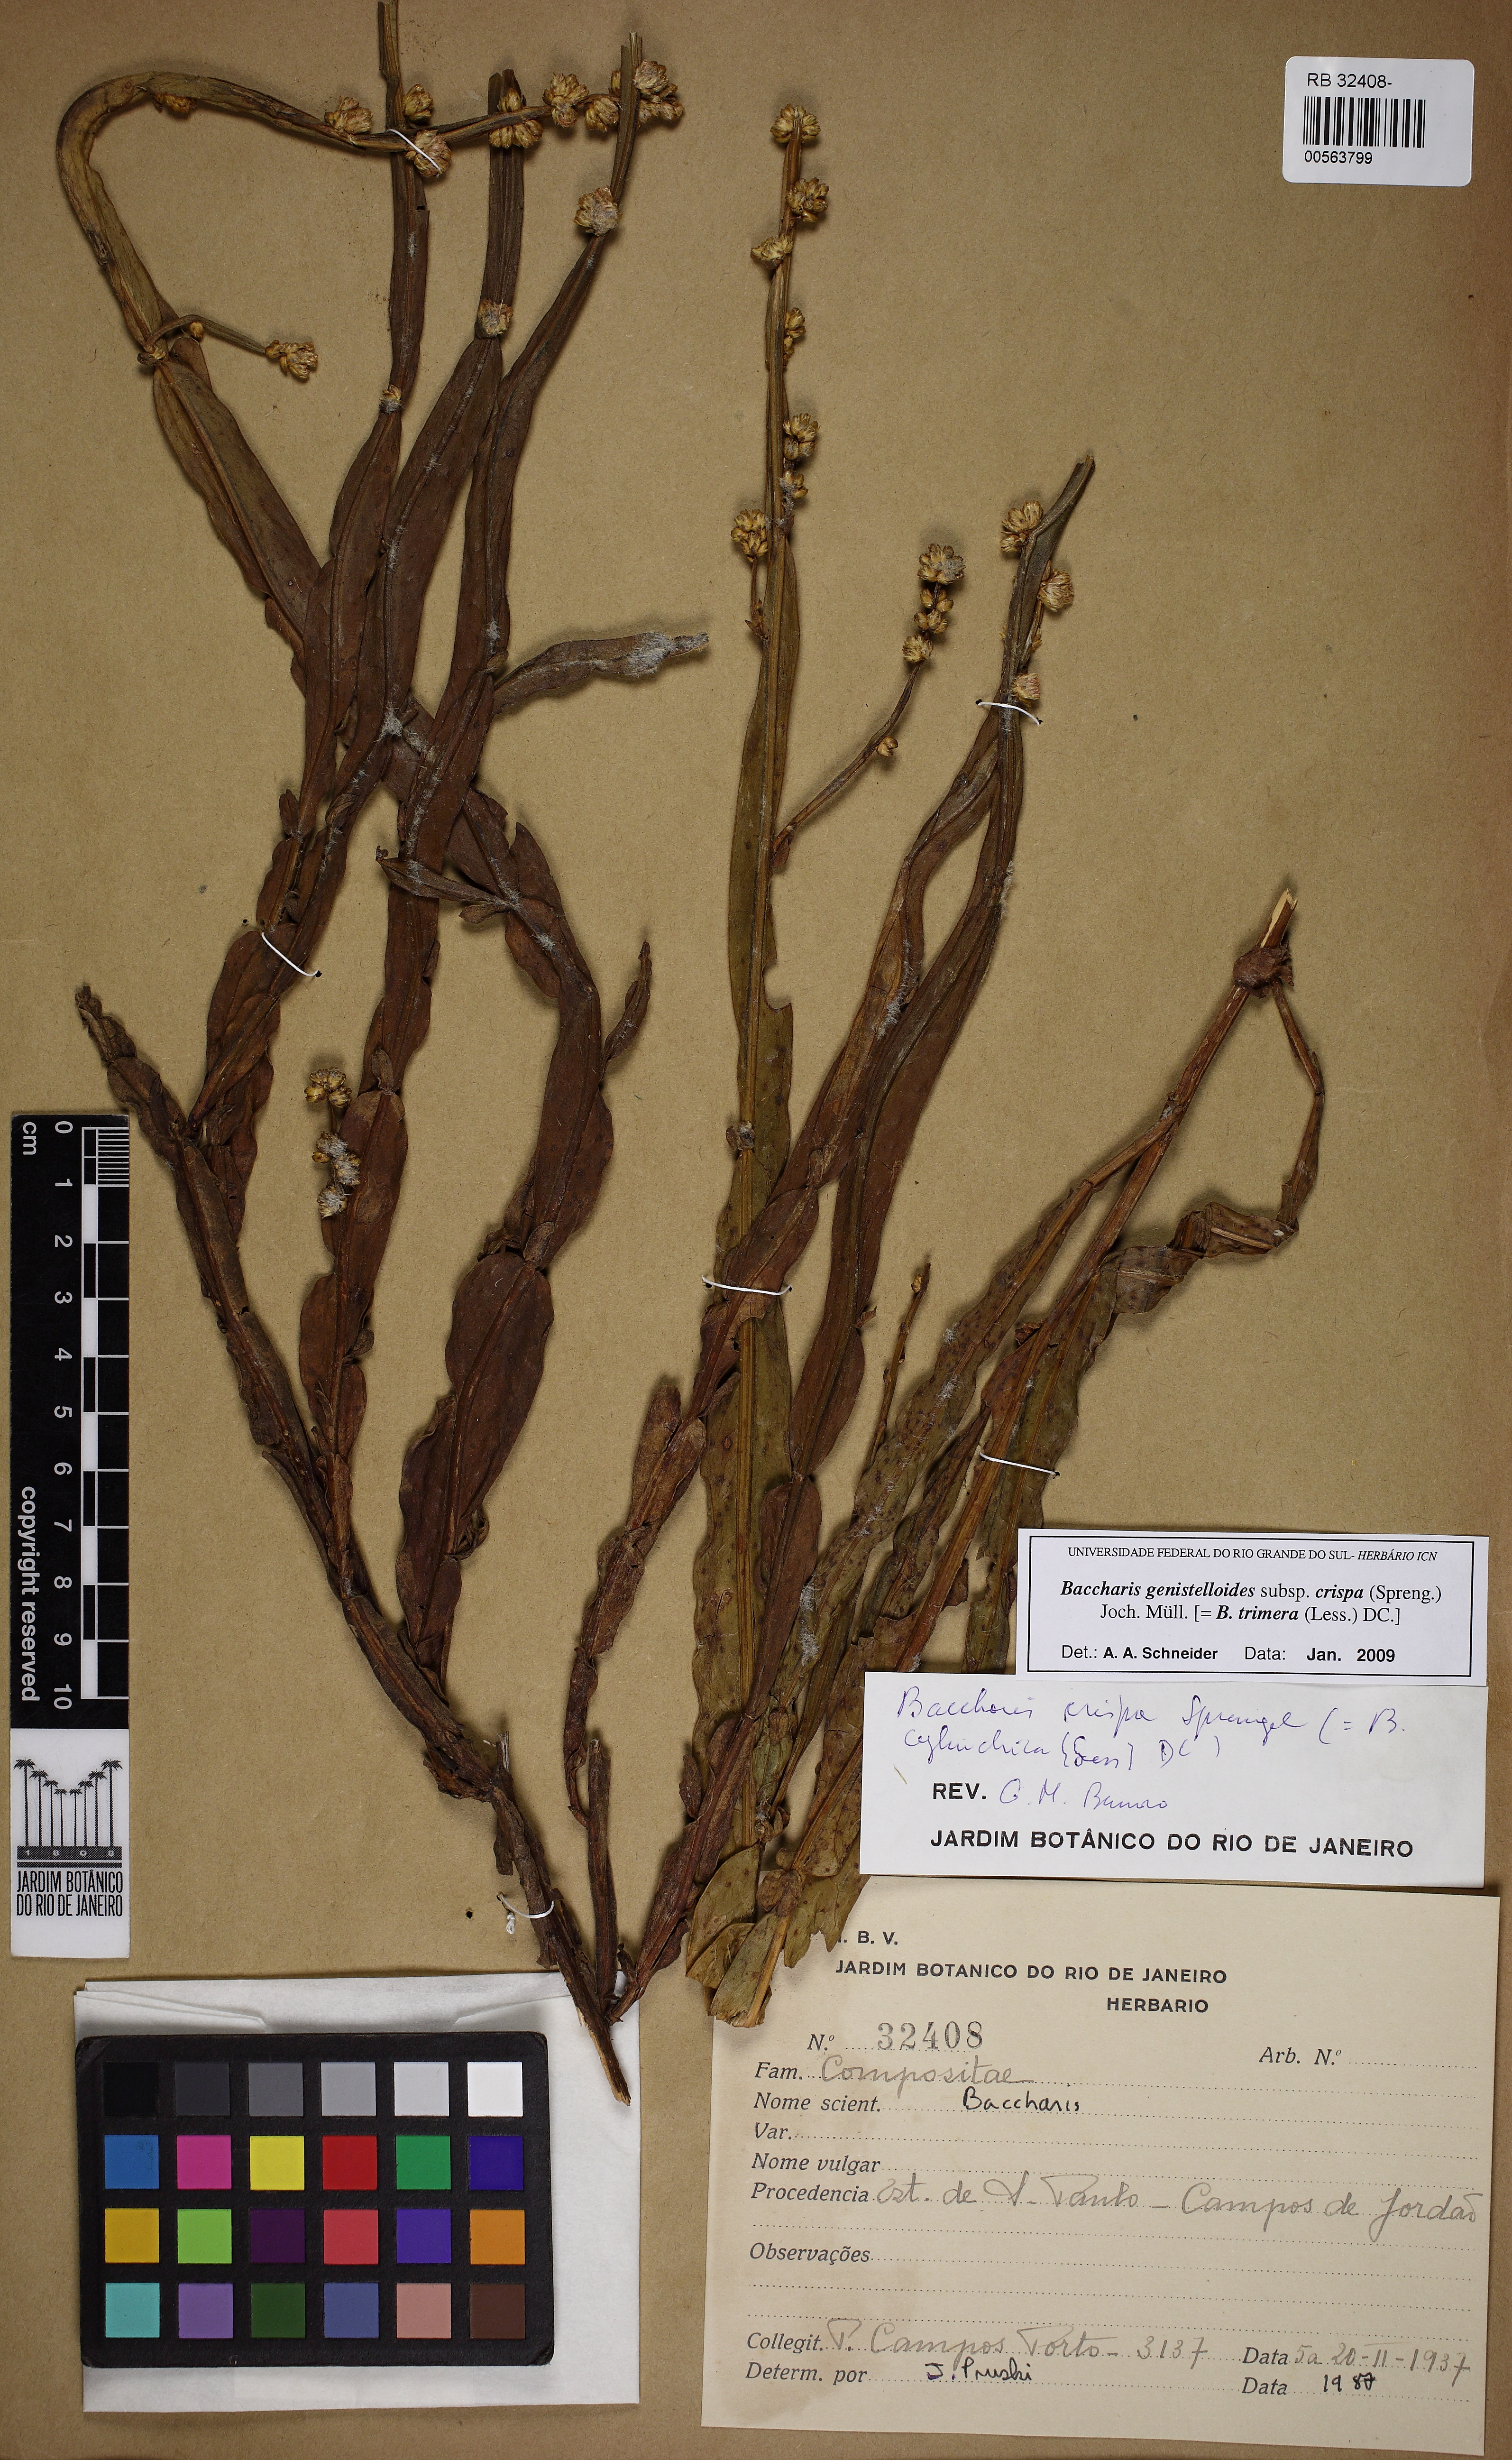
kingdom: Plantae
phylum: Tracheophyta
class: Magnoliopsida
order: Asterales
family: Asteraceae
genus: Baccharis
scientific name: Baccharis crispa
